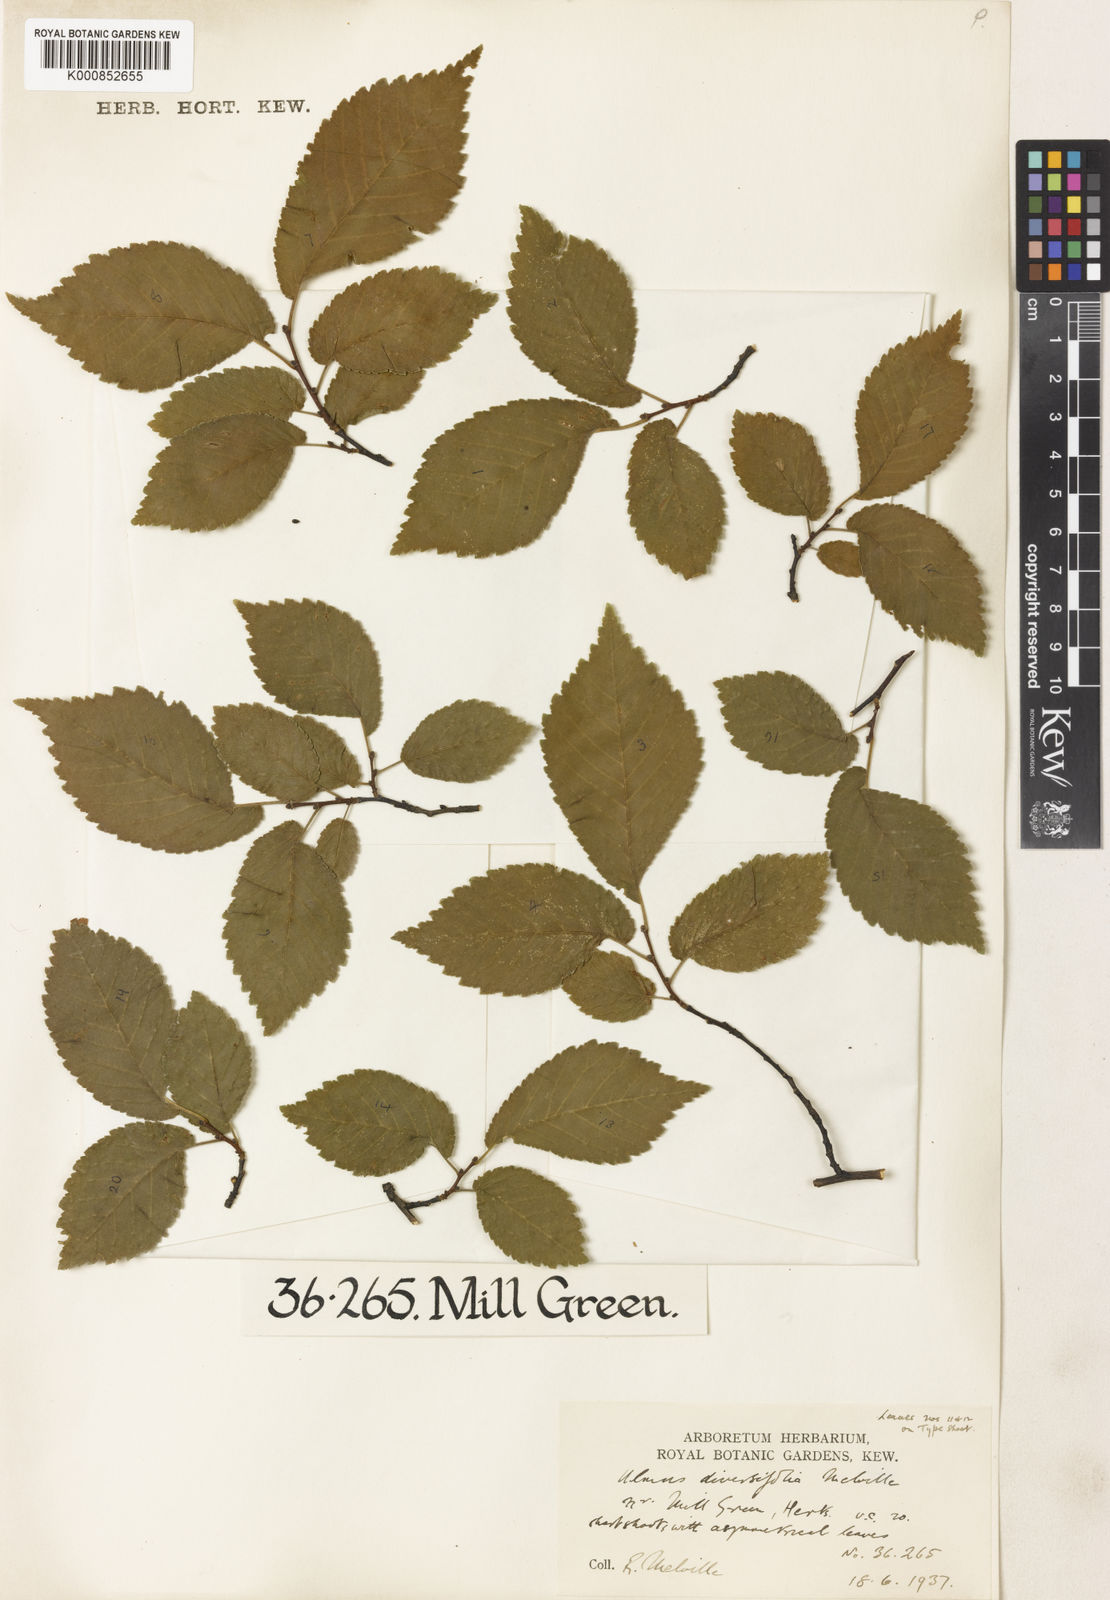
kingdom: Plantae
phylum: Tracheophyta
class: Magnoliopsida
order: Rosales
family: Ulmaceae
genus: Ulmus
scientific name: Ulmus minor
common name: Small-leaved elm
